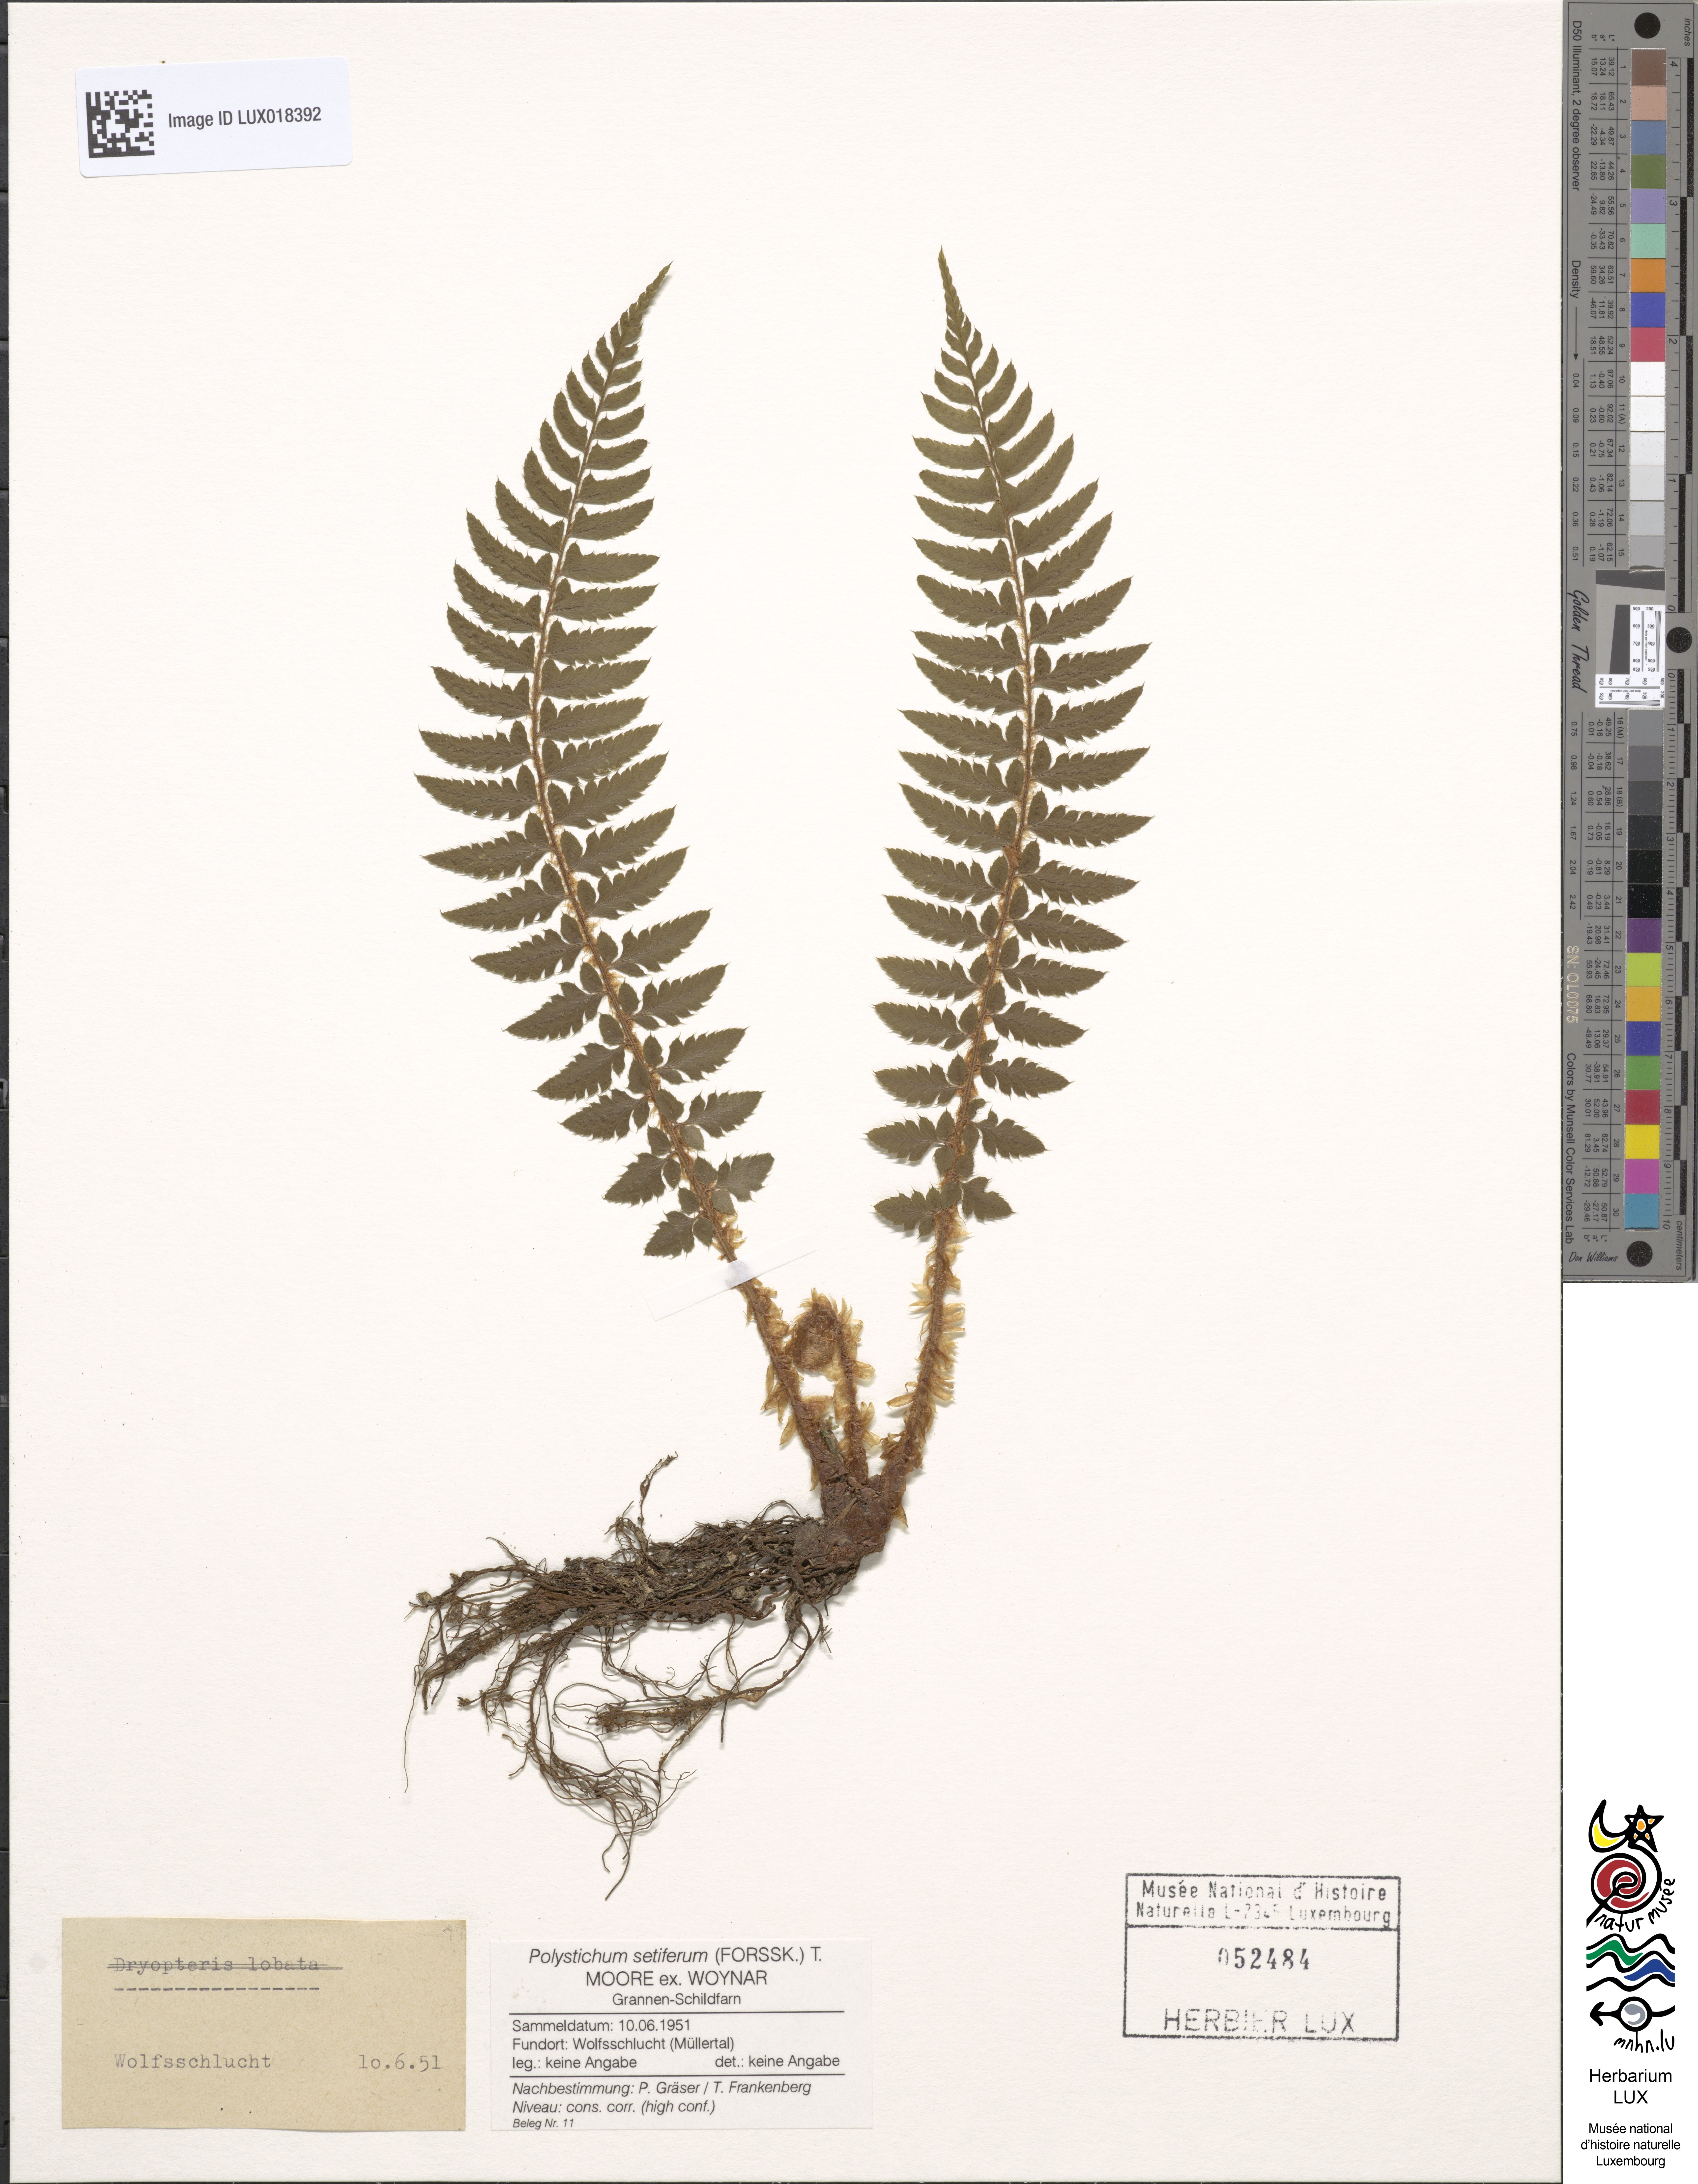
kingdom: Plantae
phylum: Tracheophyta
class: Polypodiopsida
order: Polypodiales
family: Dryopteridaceae
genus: Polystichum
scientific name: Polystichum setiferum
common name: Soft shield-fern
